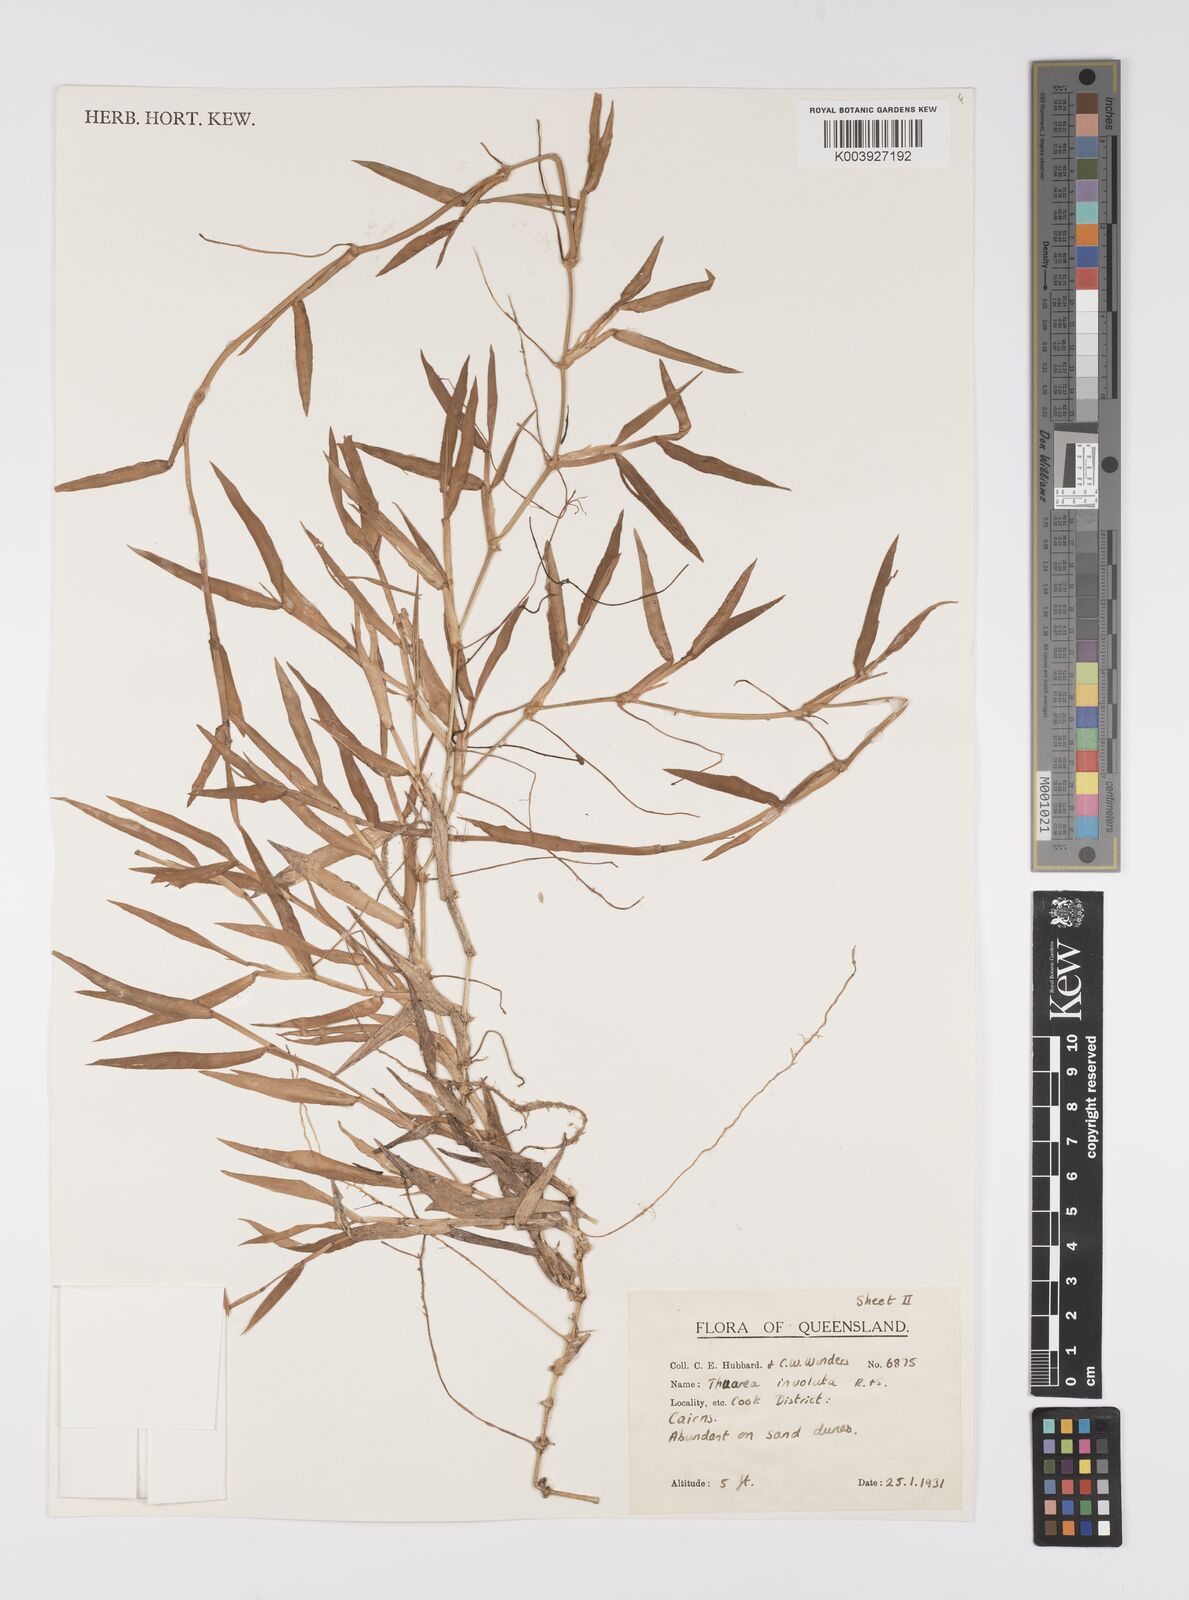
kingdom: Plantae
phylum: Tracheophyta
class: Liliopsida
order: Poales
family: Poaceae
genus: Thuarea
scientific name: Thuarea involuta
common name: Tropical beach grass
